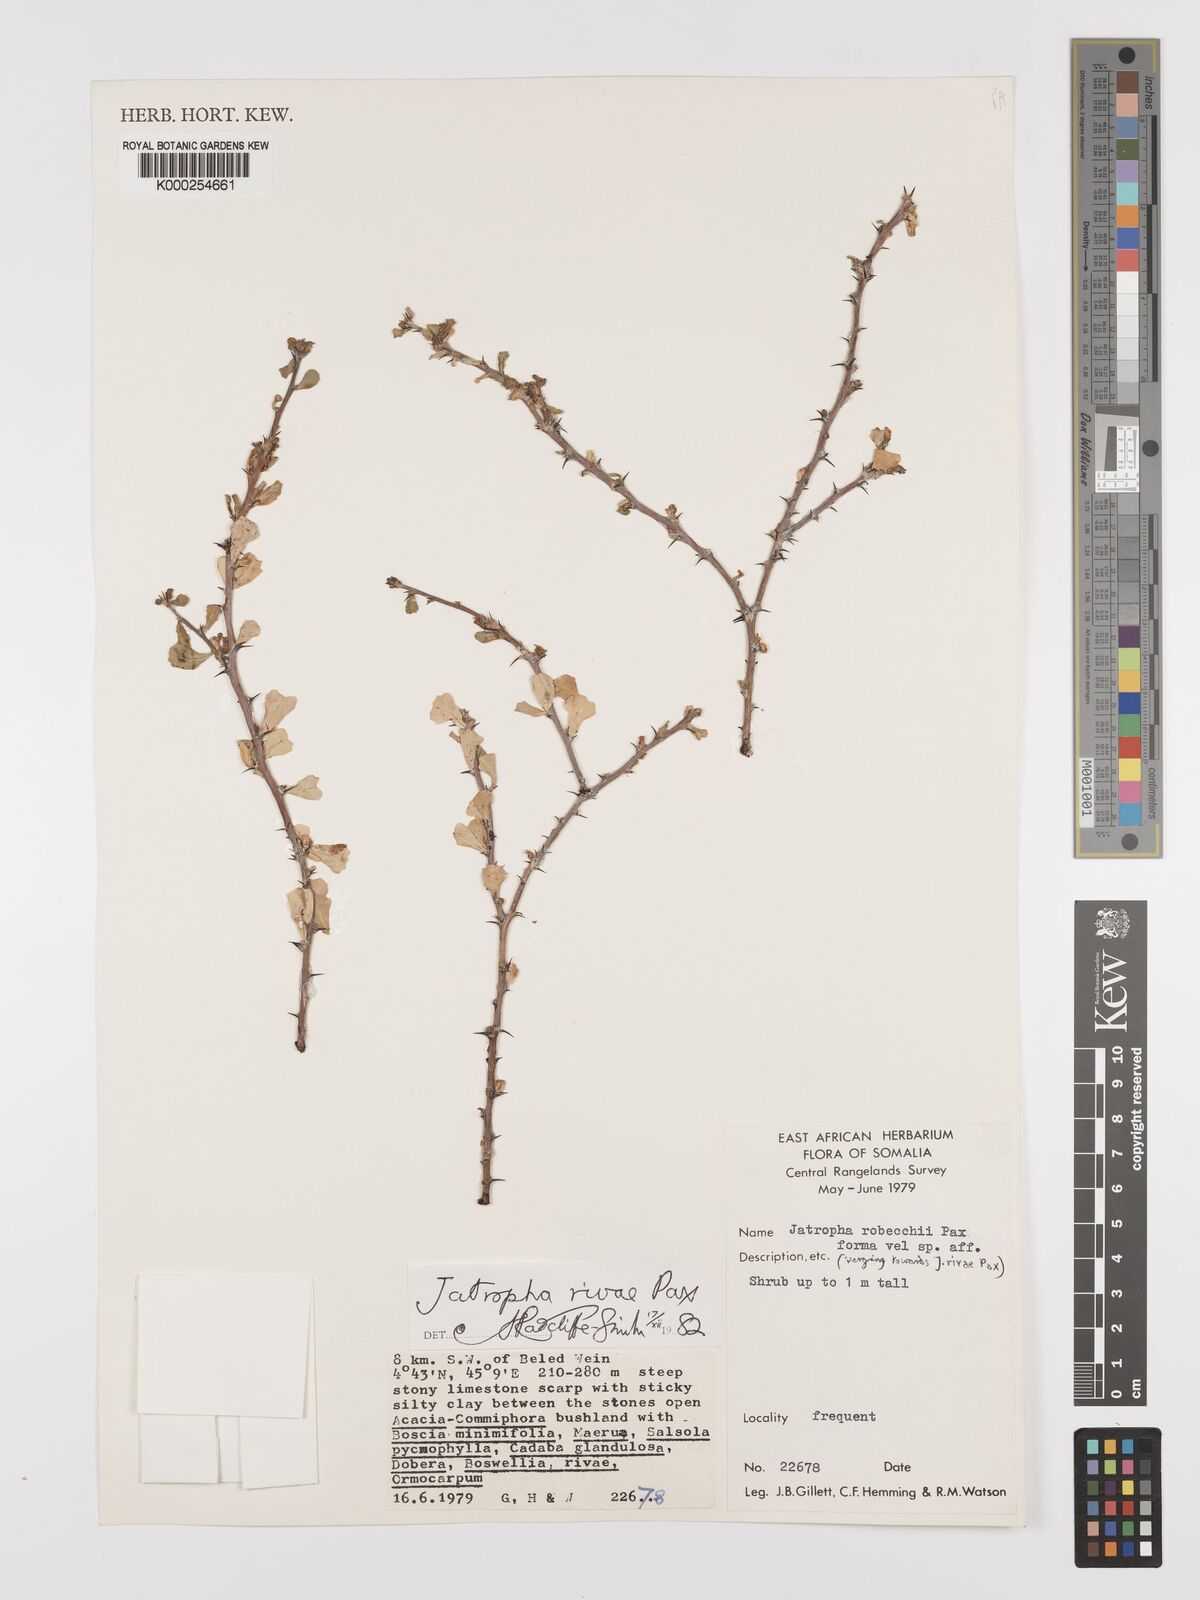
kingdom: Plantae
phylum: Tracheophyta
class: Magnoliopsida
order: Malpighiales
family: Euphorbiaceae
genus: Jatropha
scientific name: Jatropha rivae
